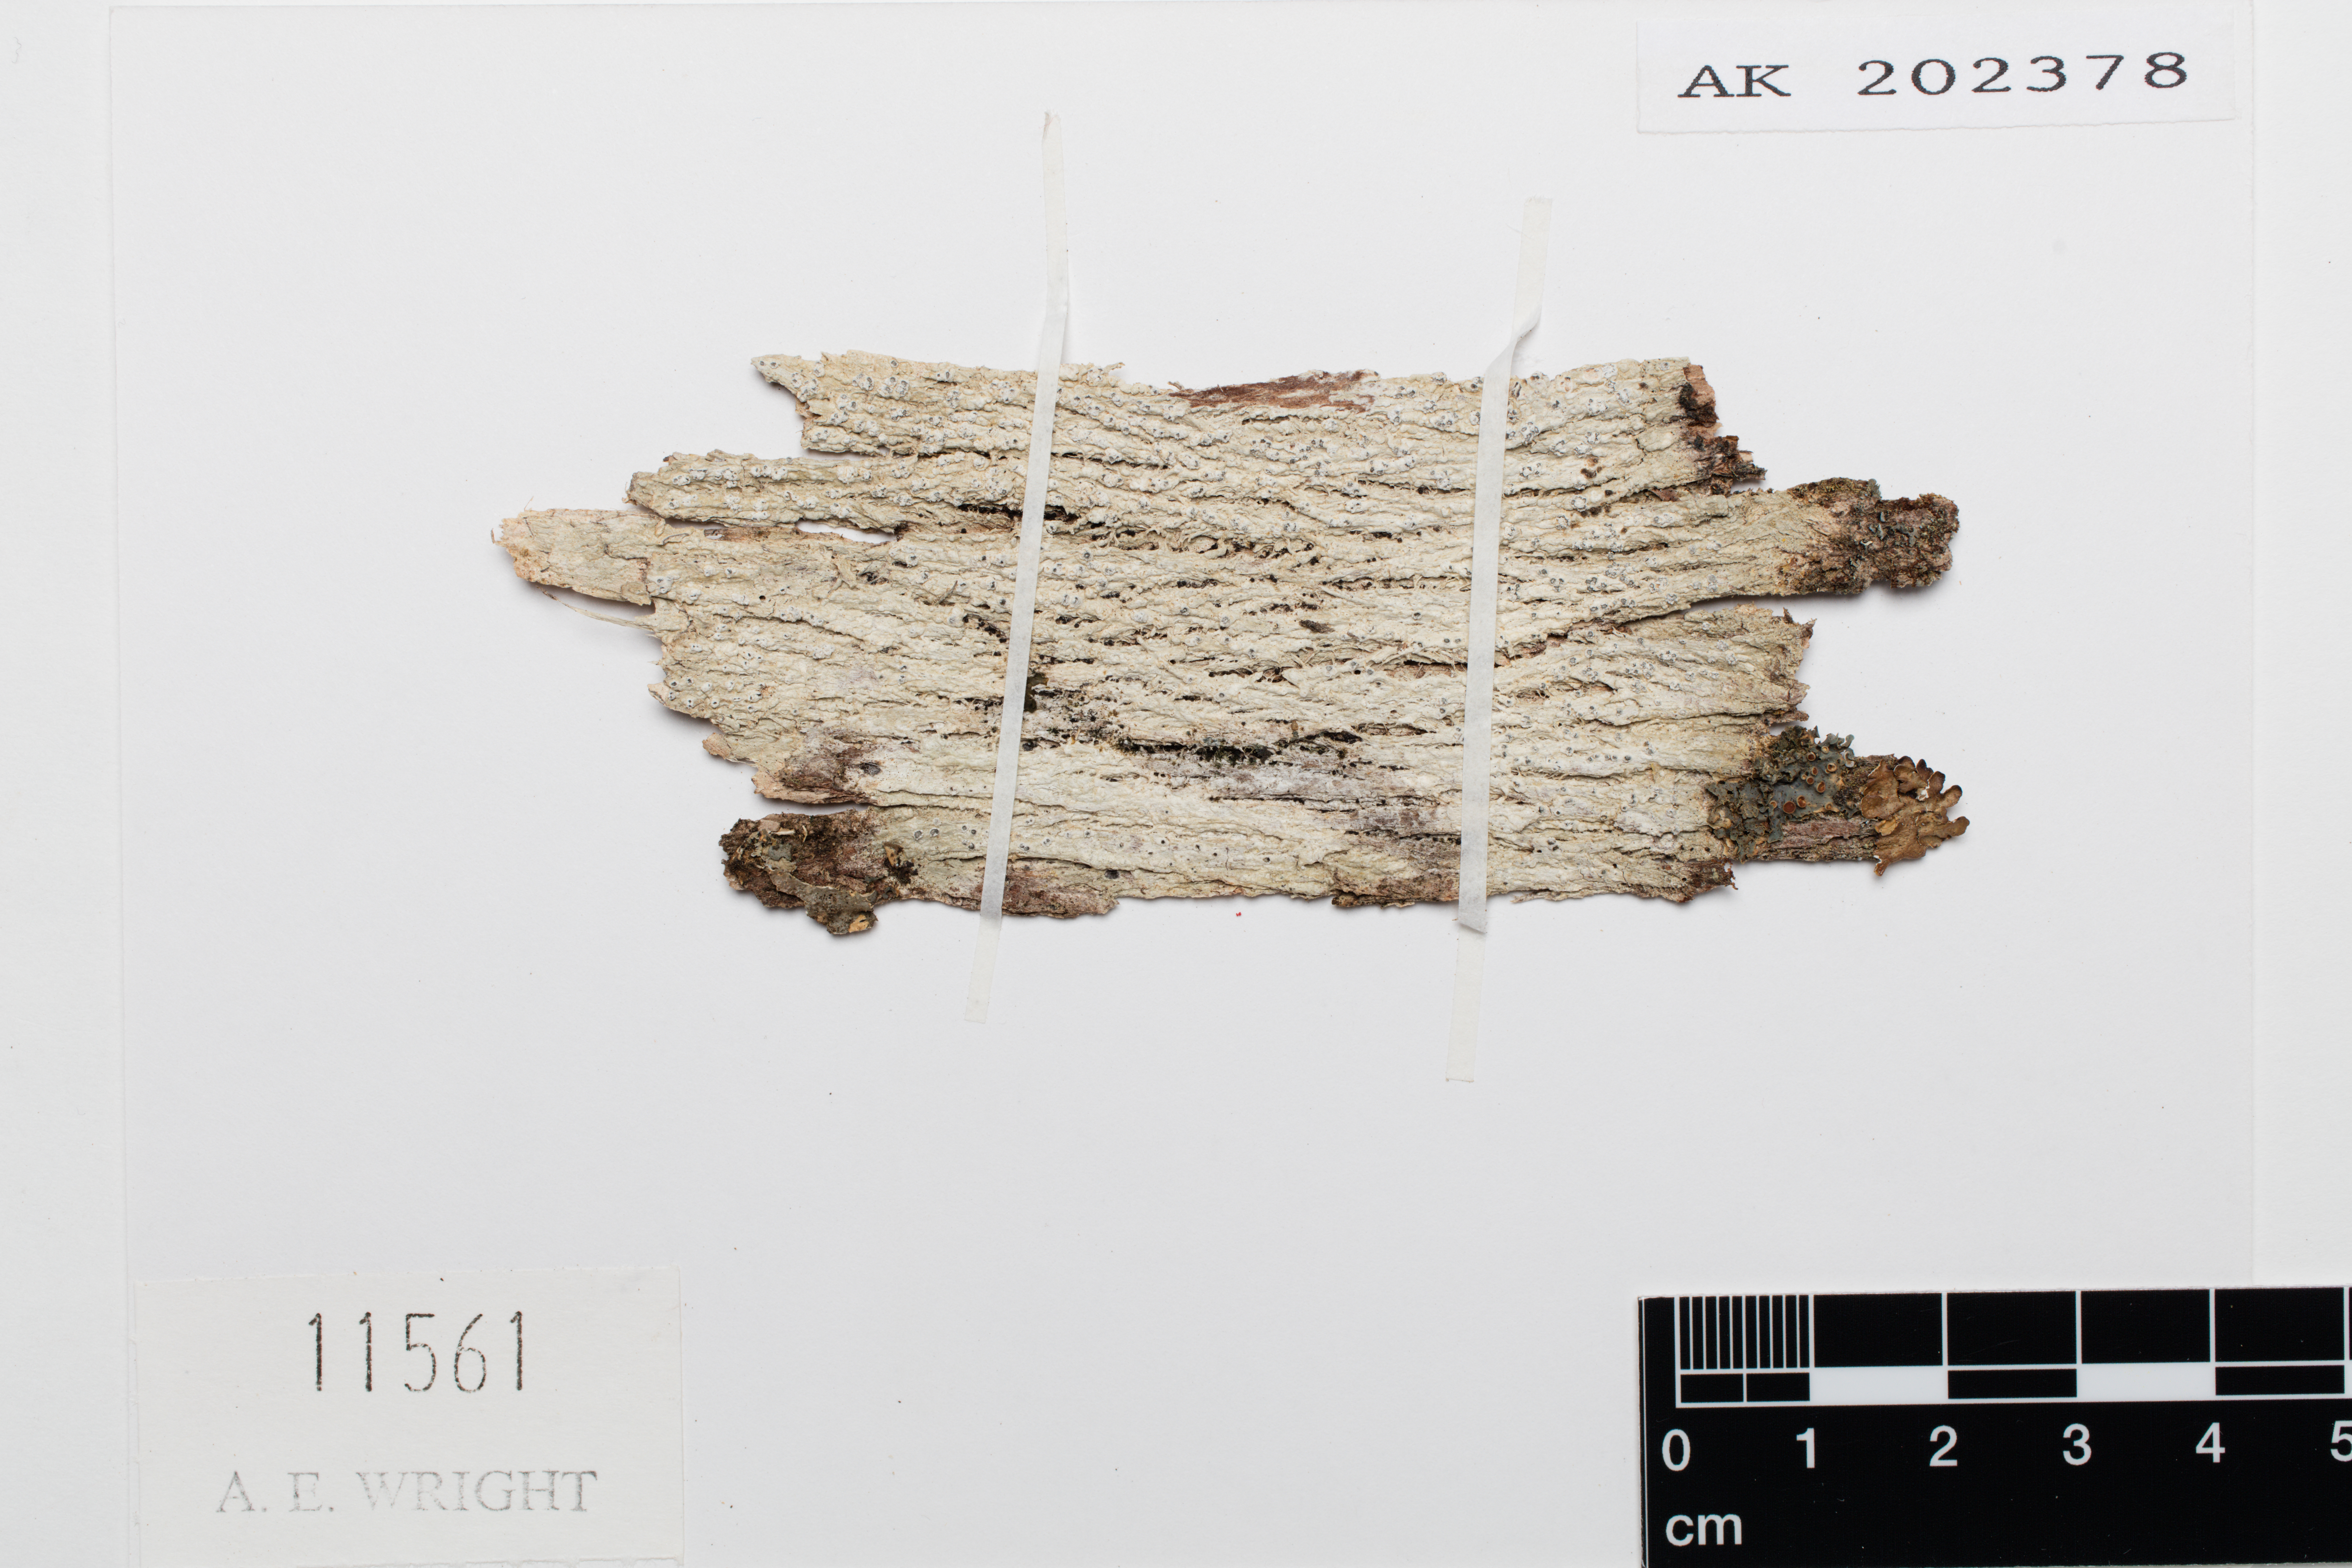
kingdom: Fungi
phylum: Ascomycota
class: Lecanoromycetes
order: Pertusariales
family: Pertusariaceae
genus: Pertusaria
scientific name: Pertusaria sporellula
